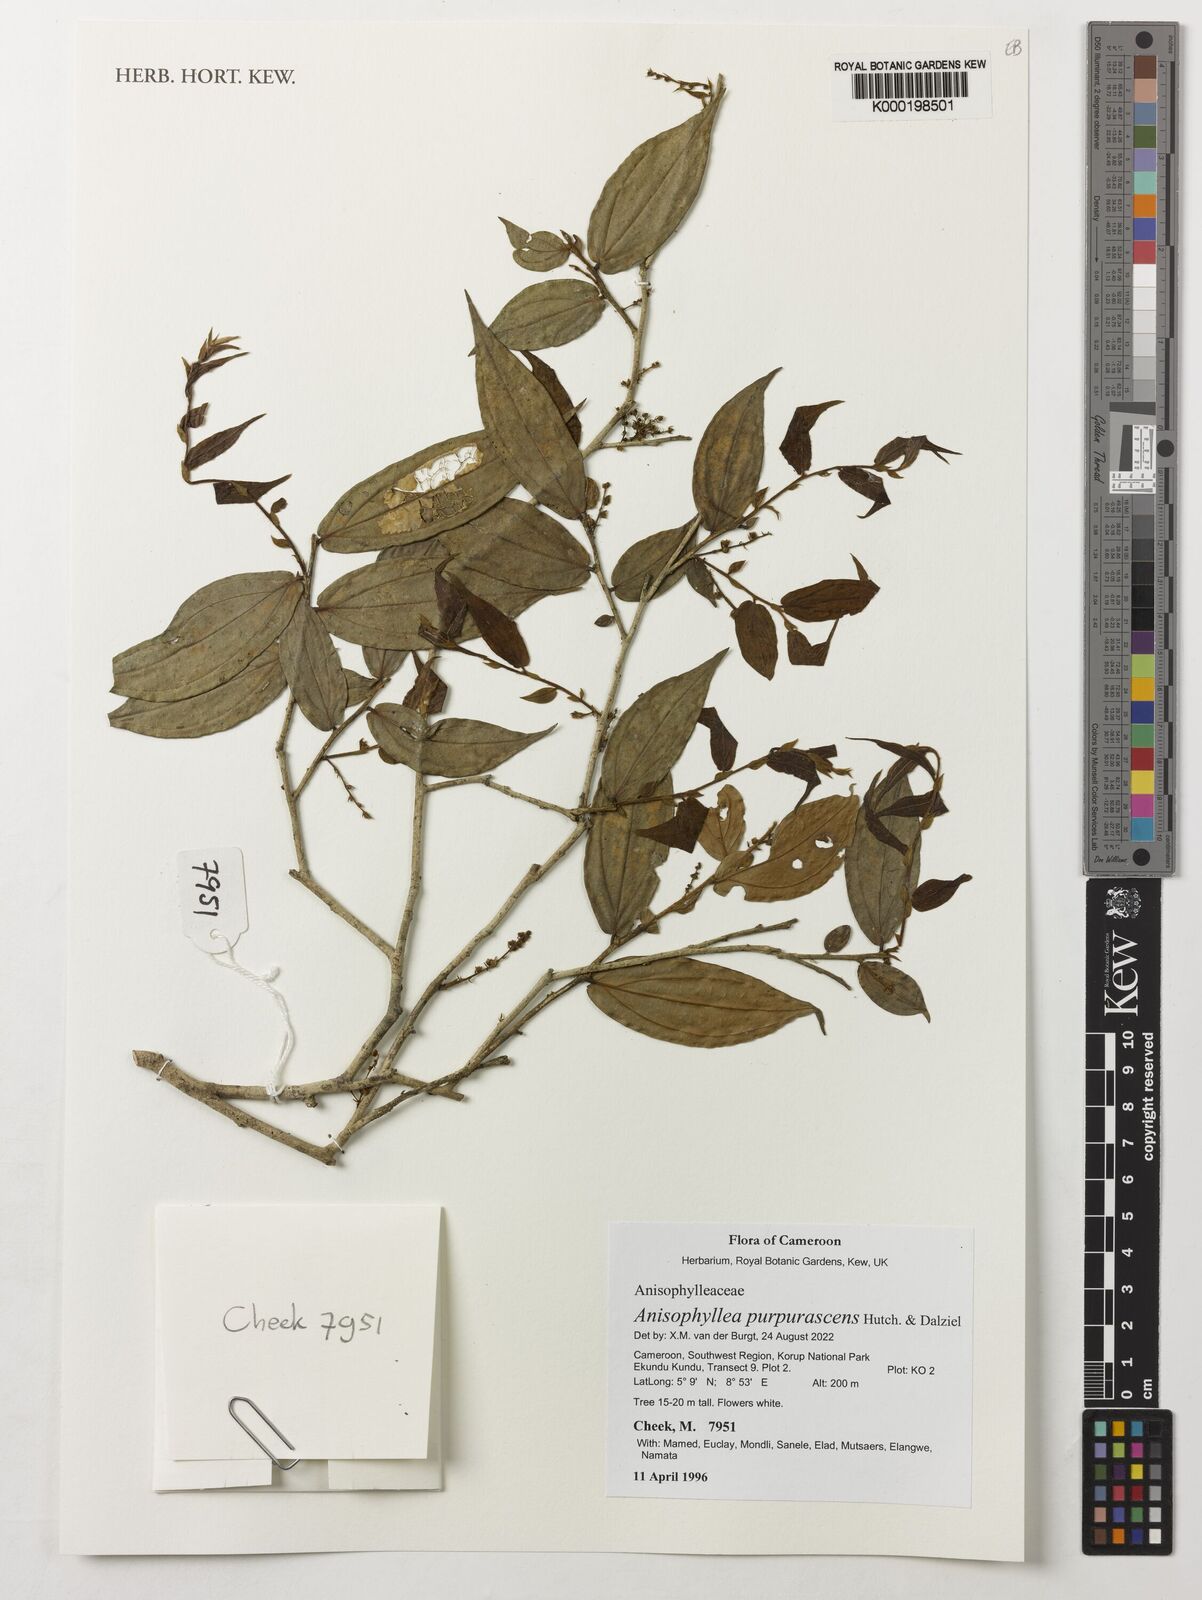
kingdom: Plantae
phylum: Tracheophyta
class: Magnoliopsida
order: Cucurbitales
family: Anisophylleaceae
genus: Anisophyllea
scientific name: Anisophyllea purpurascens
